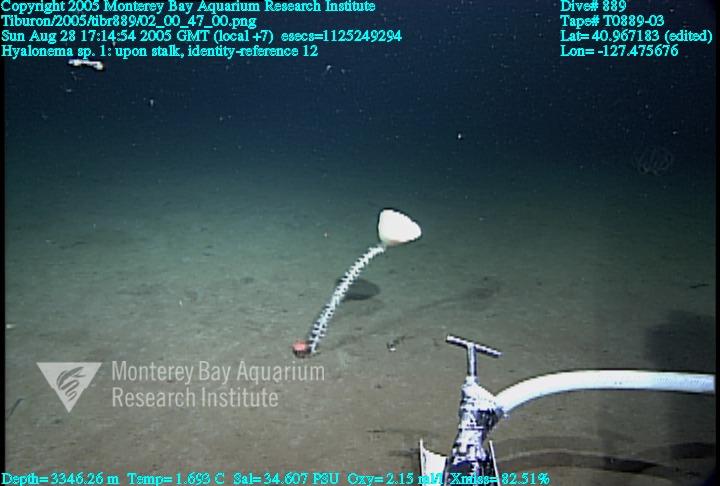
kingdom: Animalia
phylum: Porifera
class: Hexactinellida
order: Amphidiscosida
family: Hyalonematidae
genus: Hyalonema
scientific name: Hyalonema
